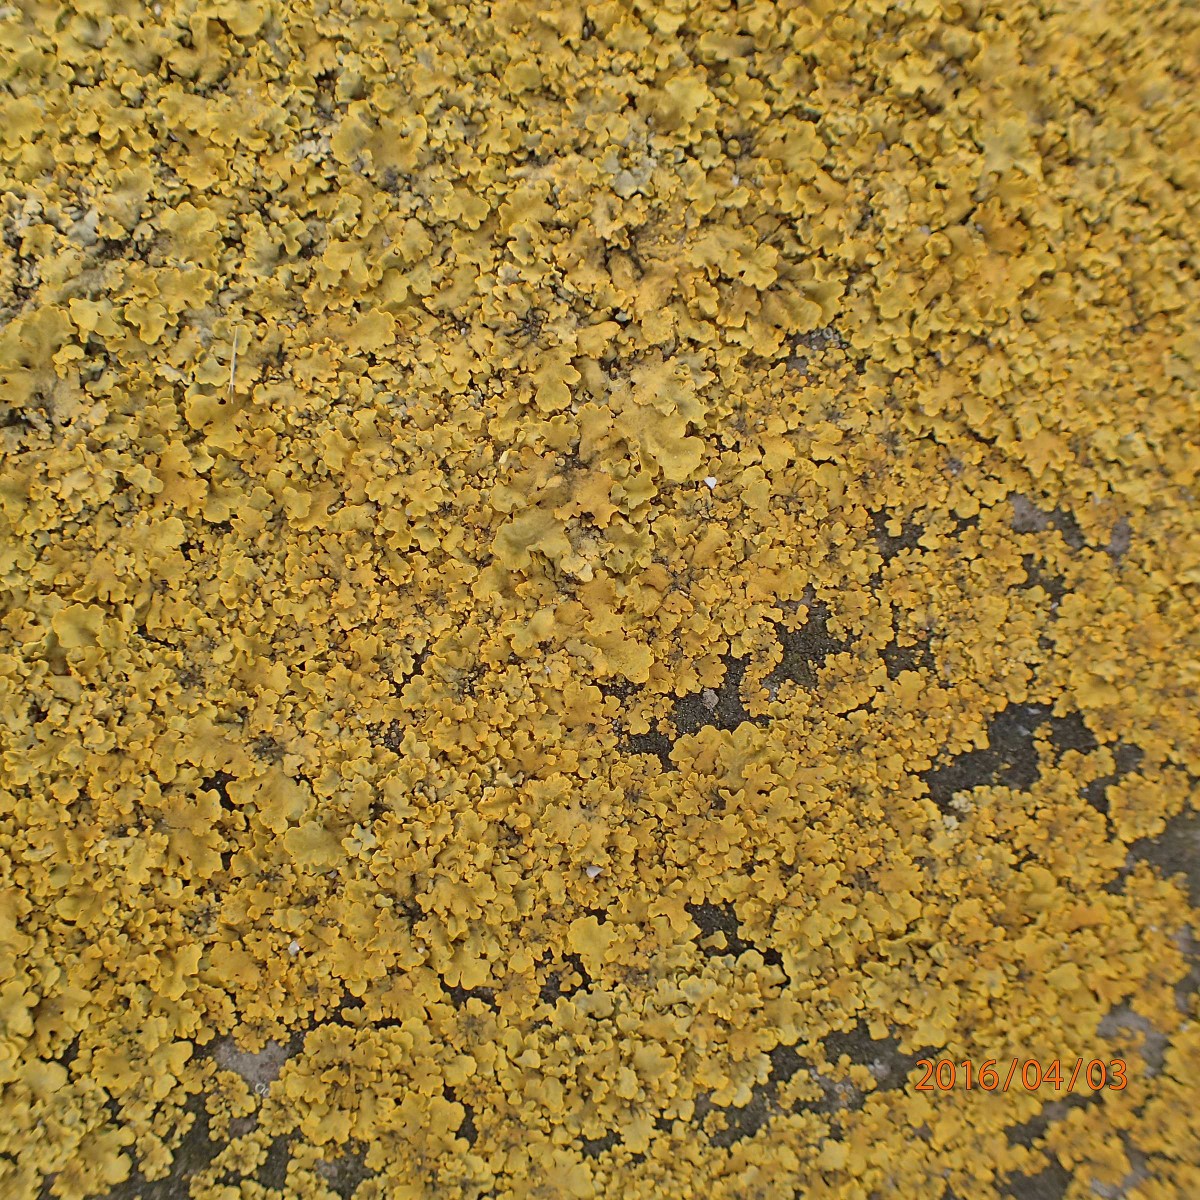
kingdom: Fungi
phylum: Ascomycota
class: Lecanoromycetes
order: Teloschistales
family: Teloschistaceae
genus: Xanthoria
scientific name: Xanthoria parietina
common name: almindelig væggelav
